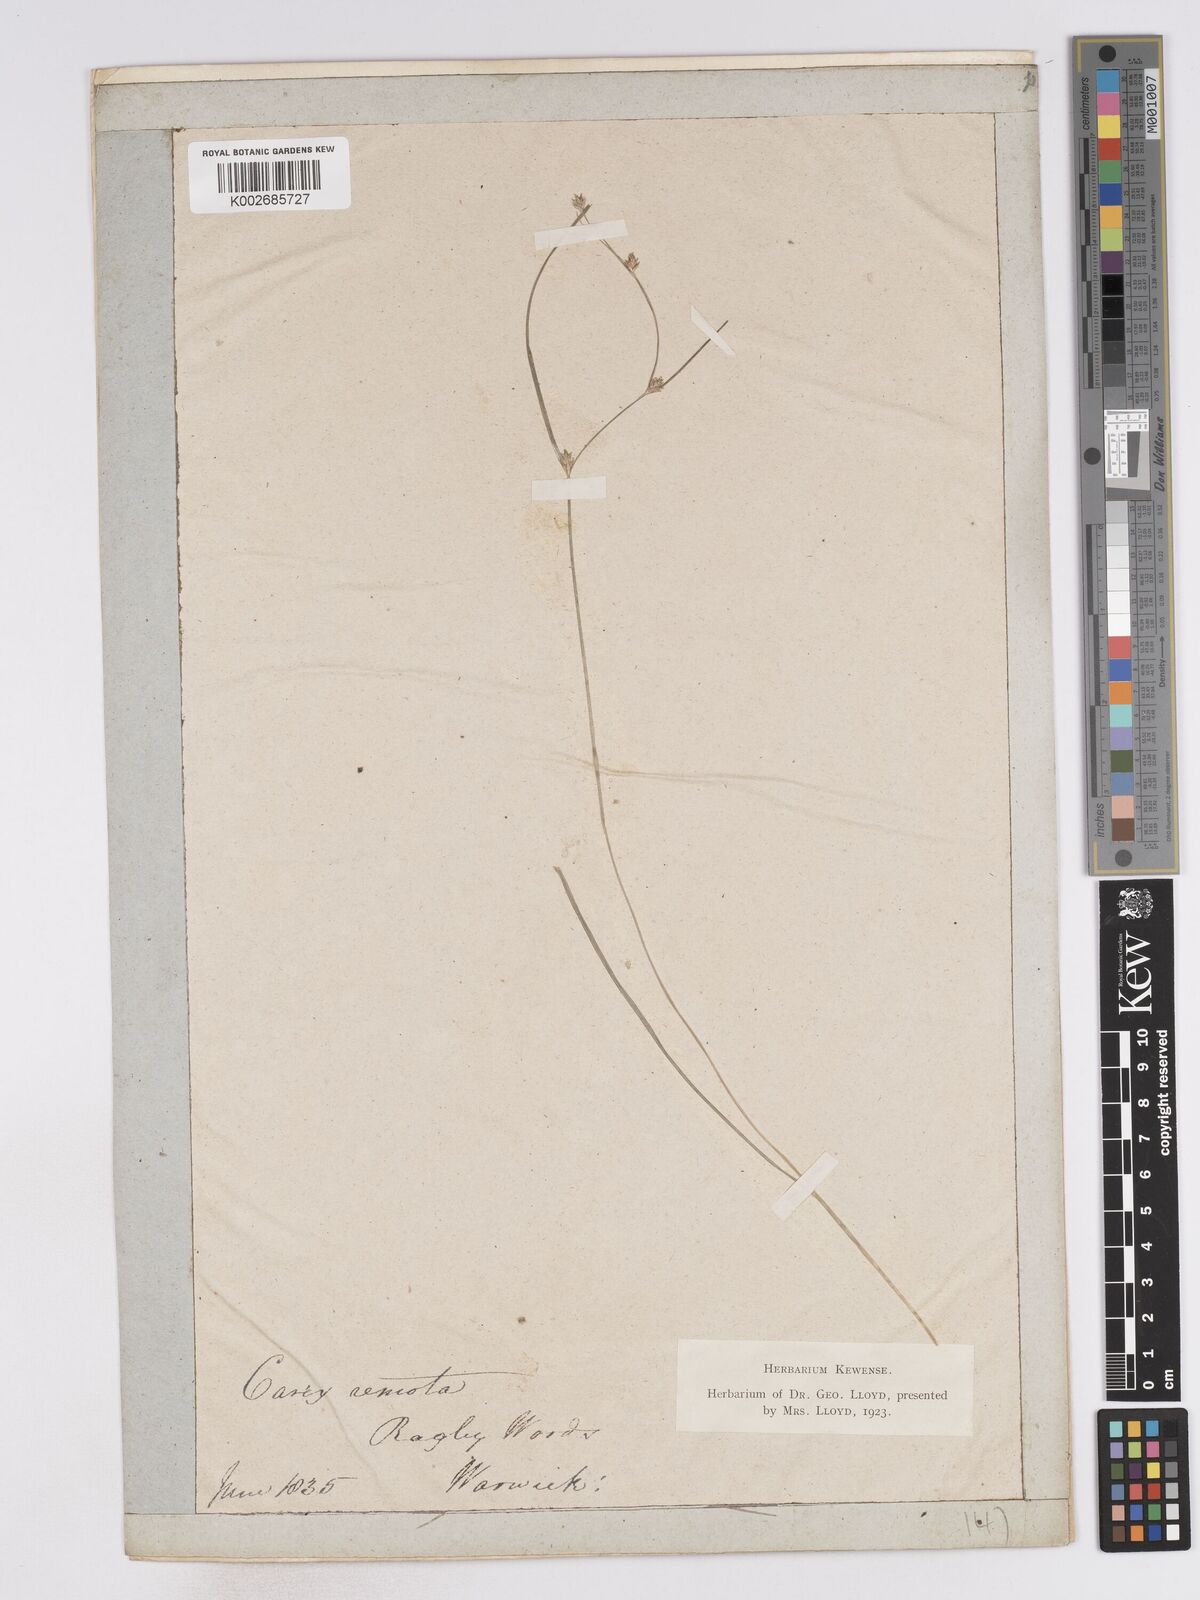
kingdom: Plantae
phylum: Tracheophyta
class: Liliopsida
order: Poales
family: Cyperaceae
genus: Carex
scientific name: Carex remota
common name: Remote sedge
